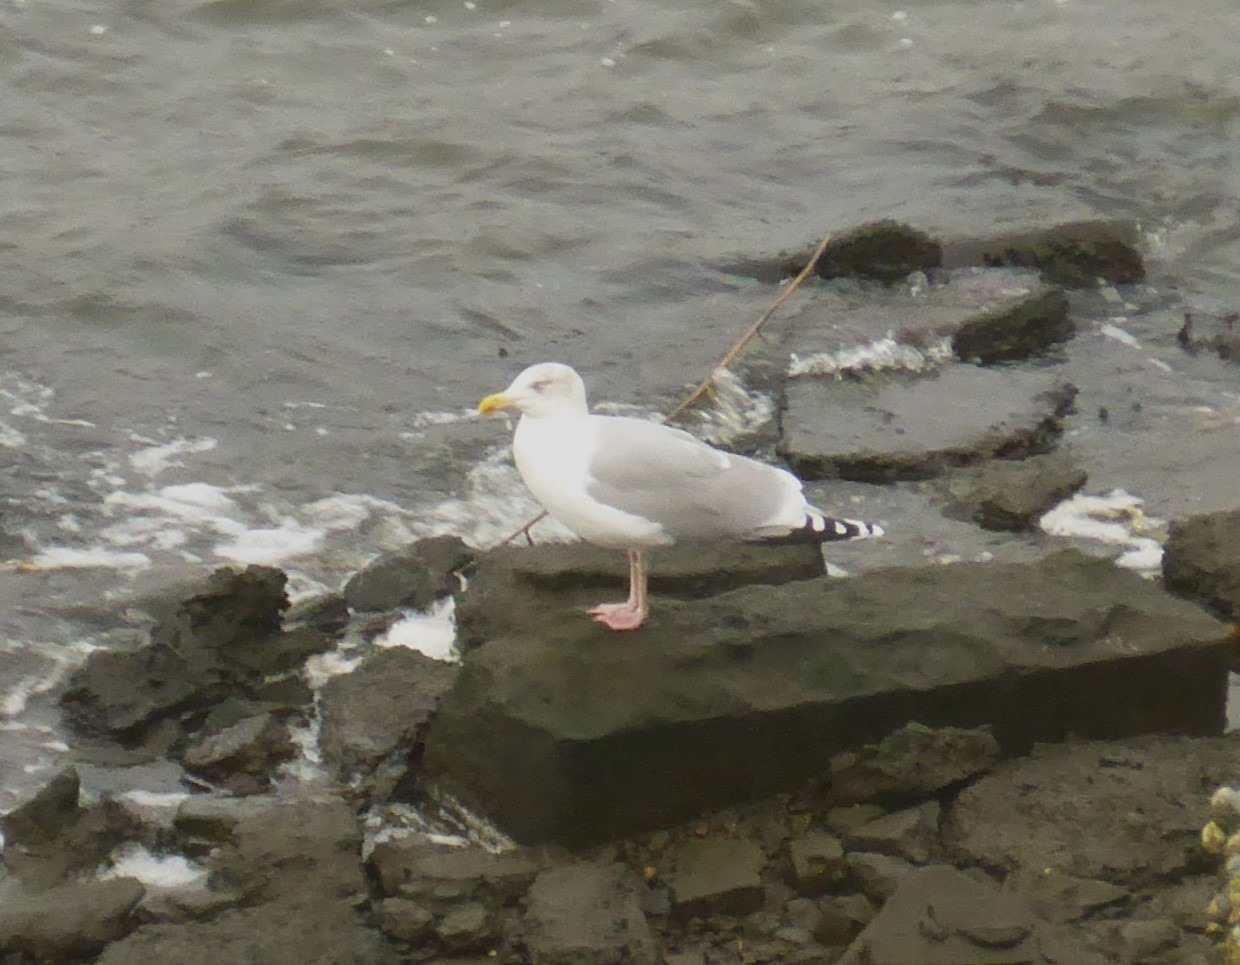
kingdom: Animalia
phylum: Chordata
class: Aves
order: Charadriiformes
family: Laridae
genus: Larus
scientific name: Larus argentatus
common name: Sølvmåge
